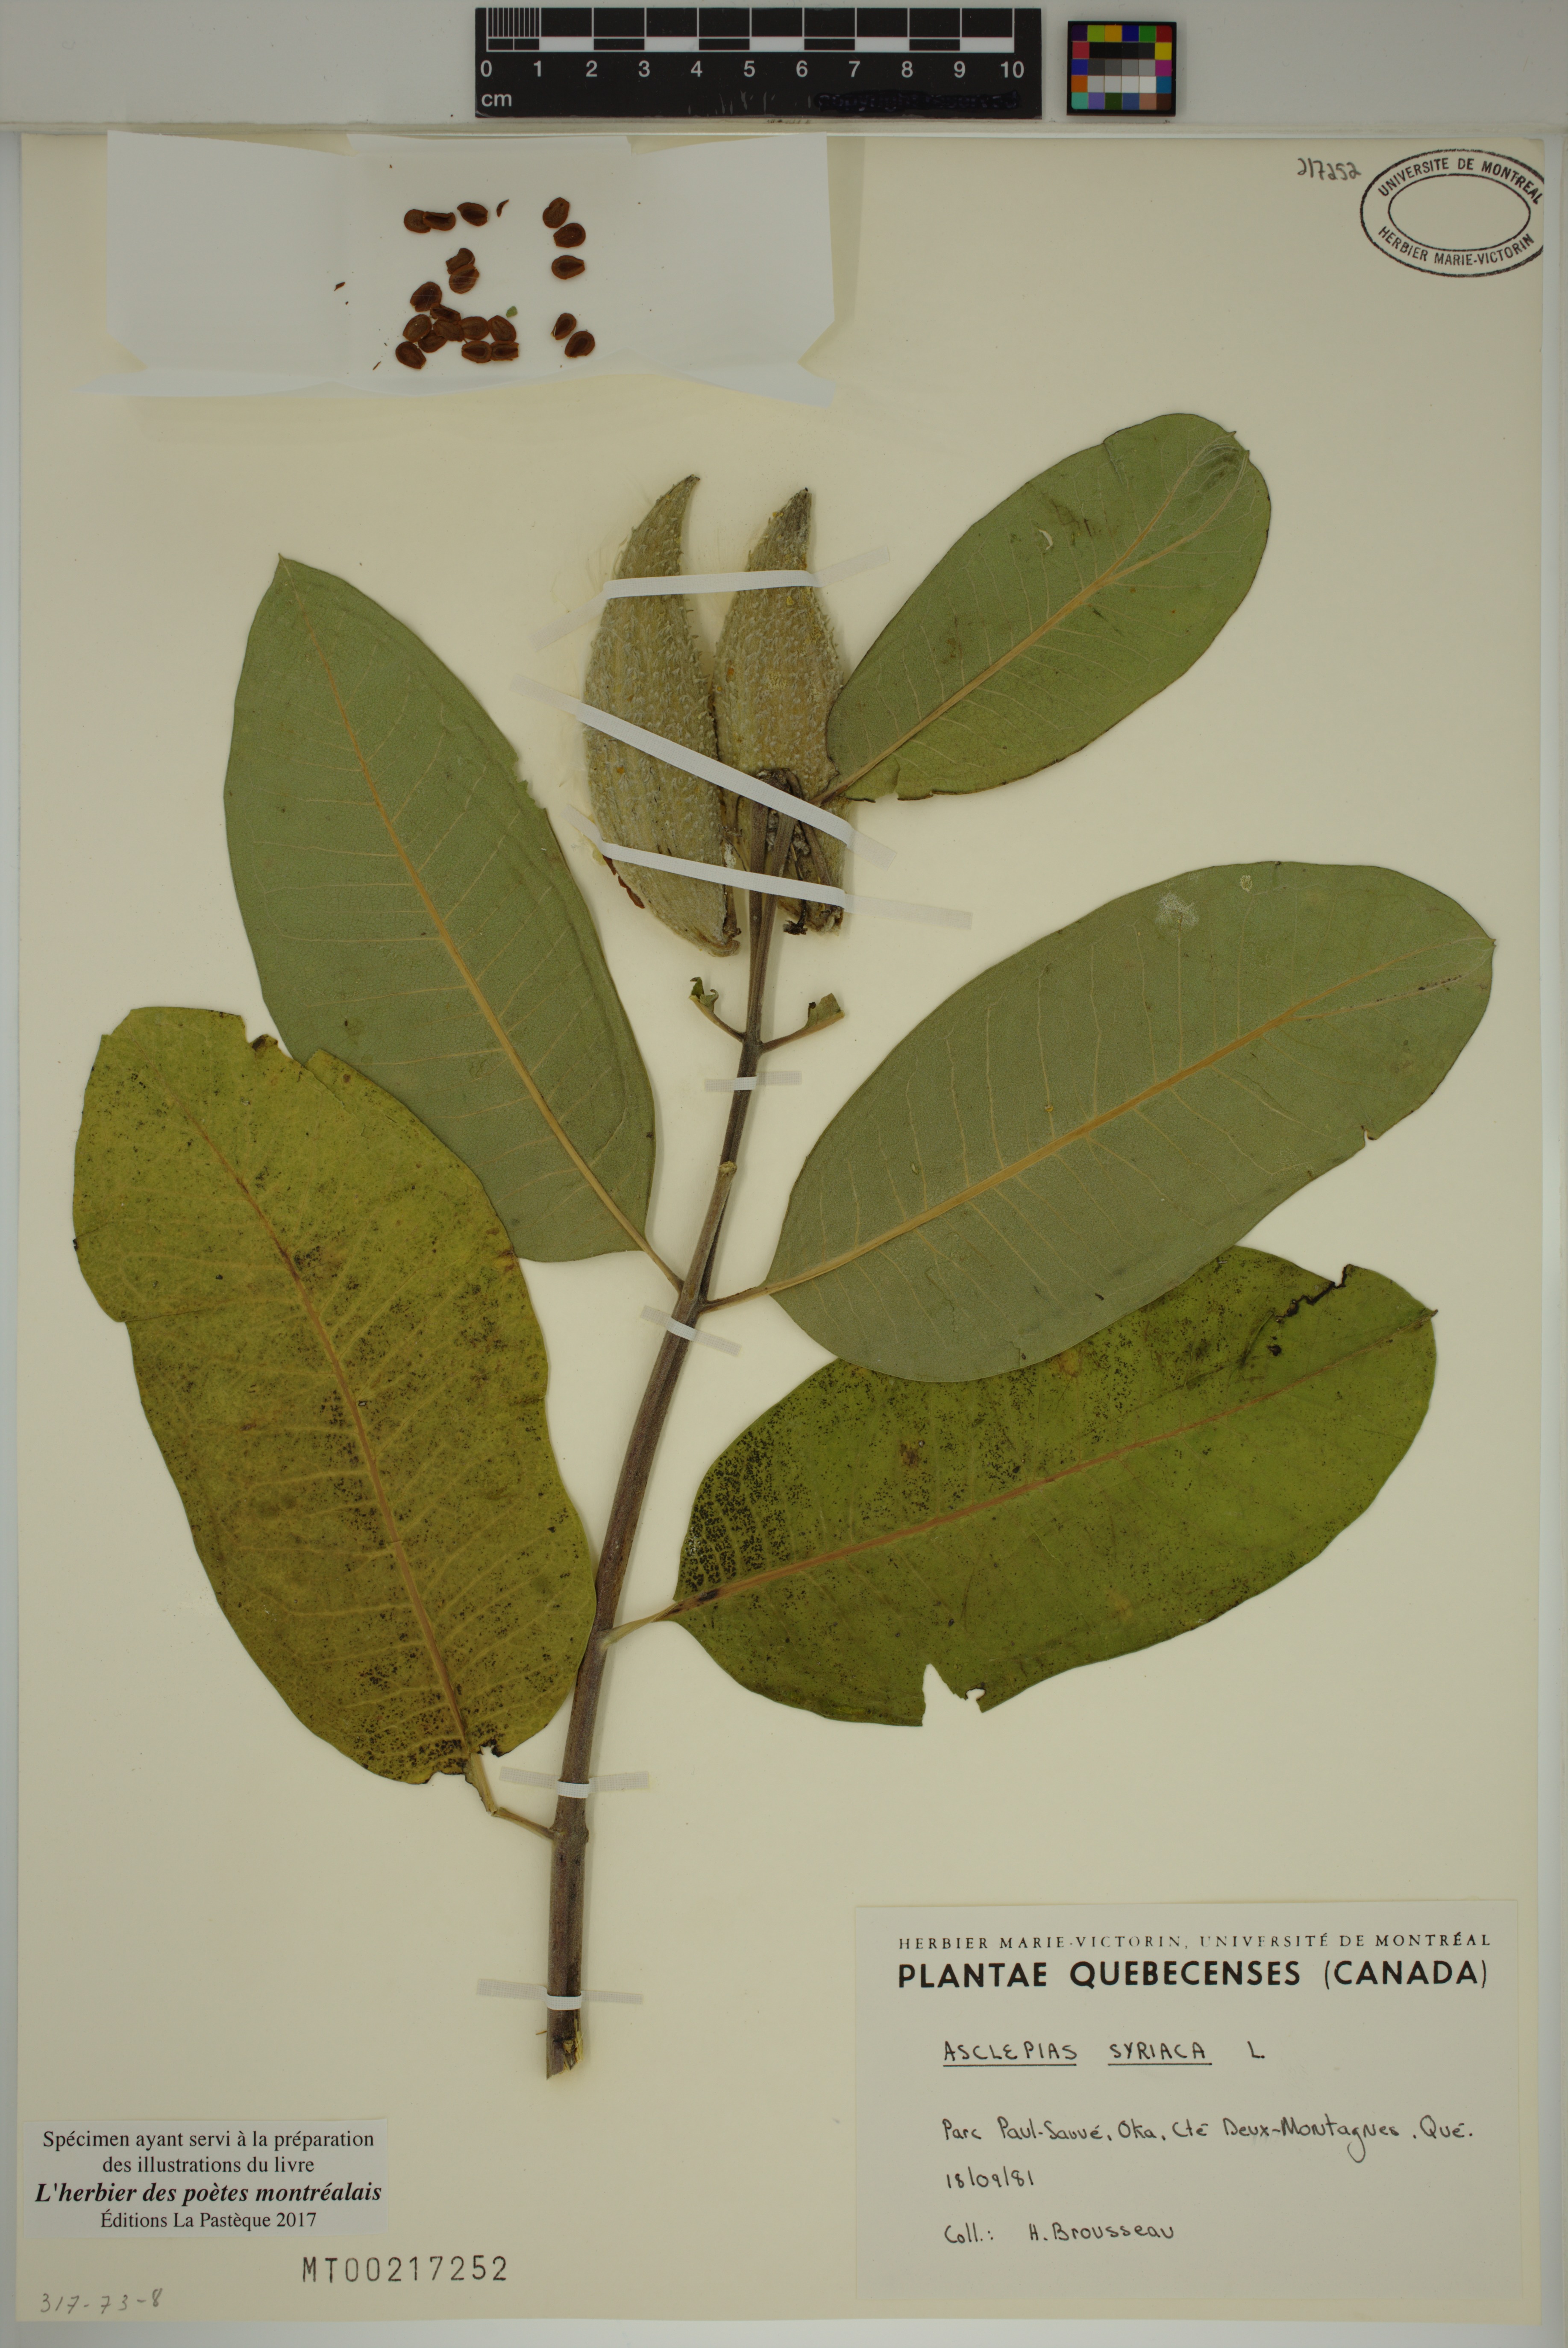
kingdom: Plantae
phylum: Tracheophyta
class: Magnoliopsida
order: Gentianales
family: Apocynaceae
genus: Asclepias
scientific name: Asclepias syriaca
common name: Common milkweed
